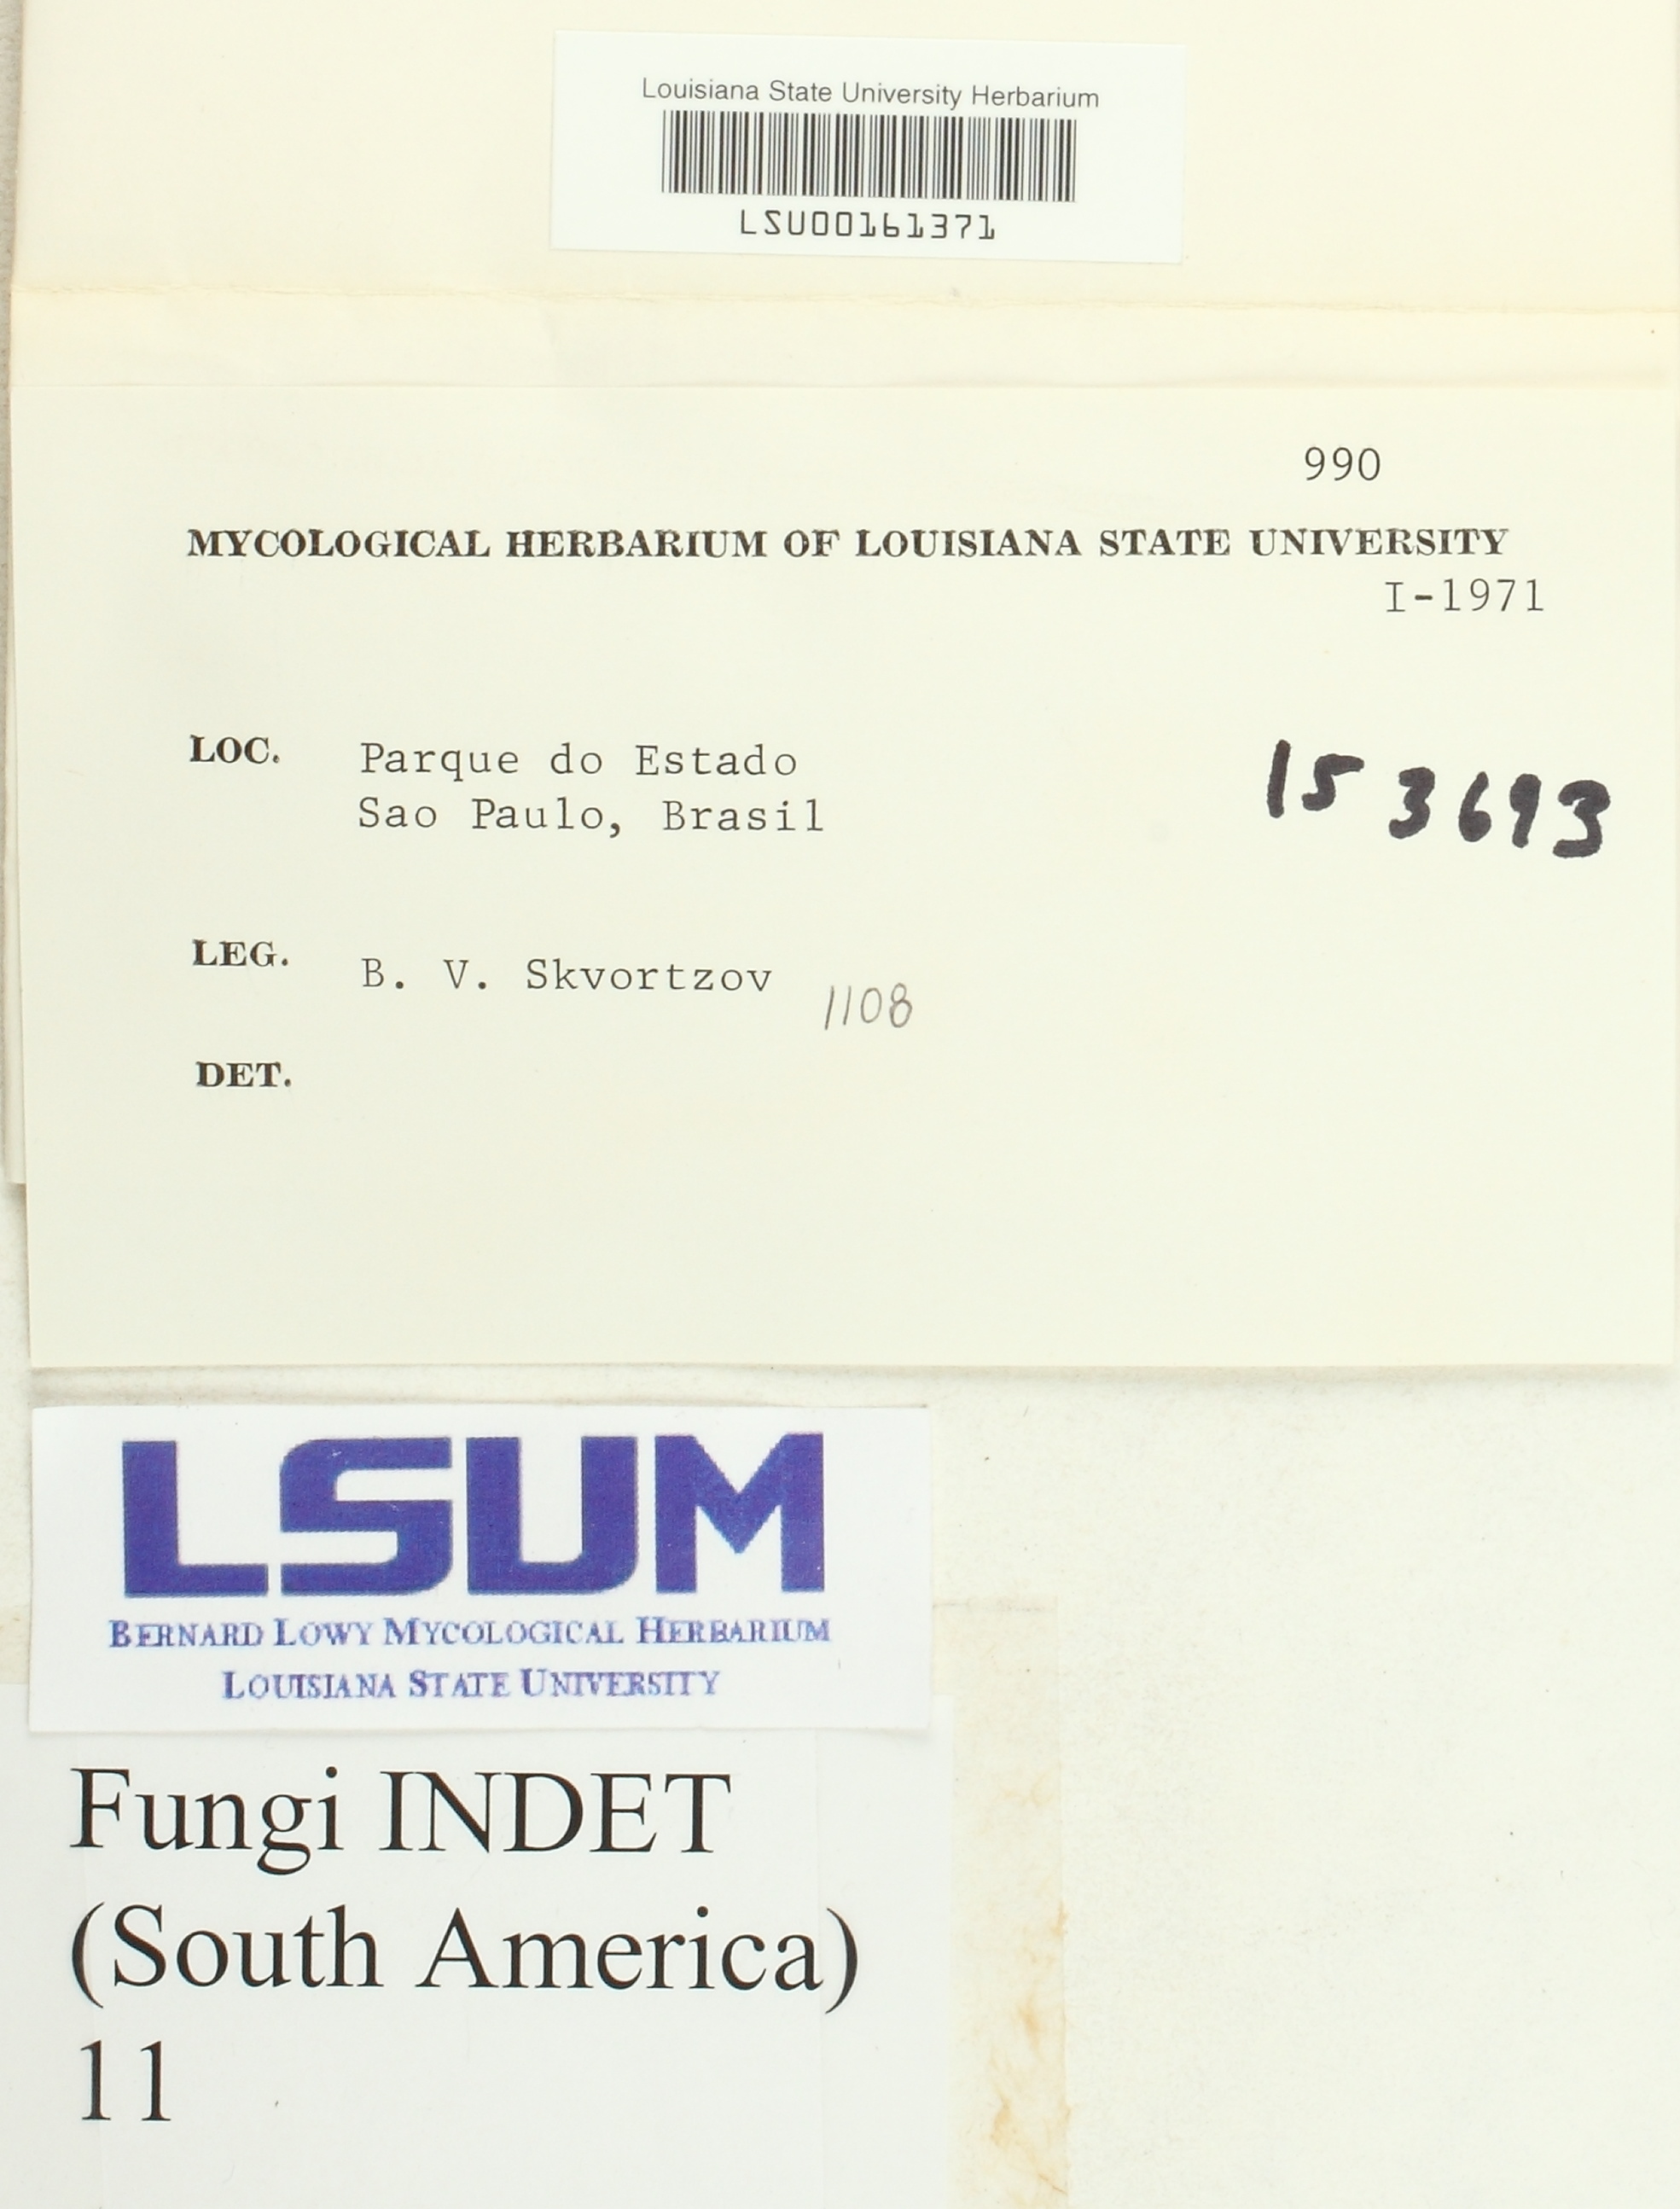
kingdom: Fungi
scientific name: Fungi
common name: Fungi
